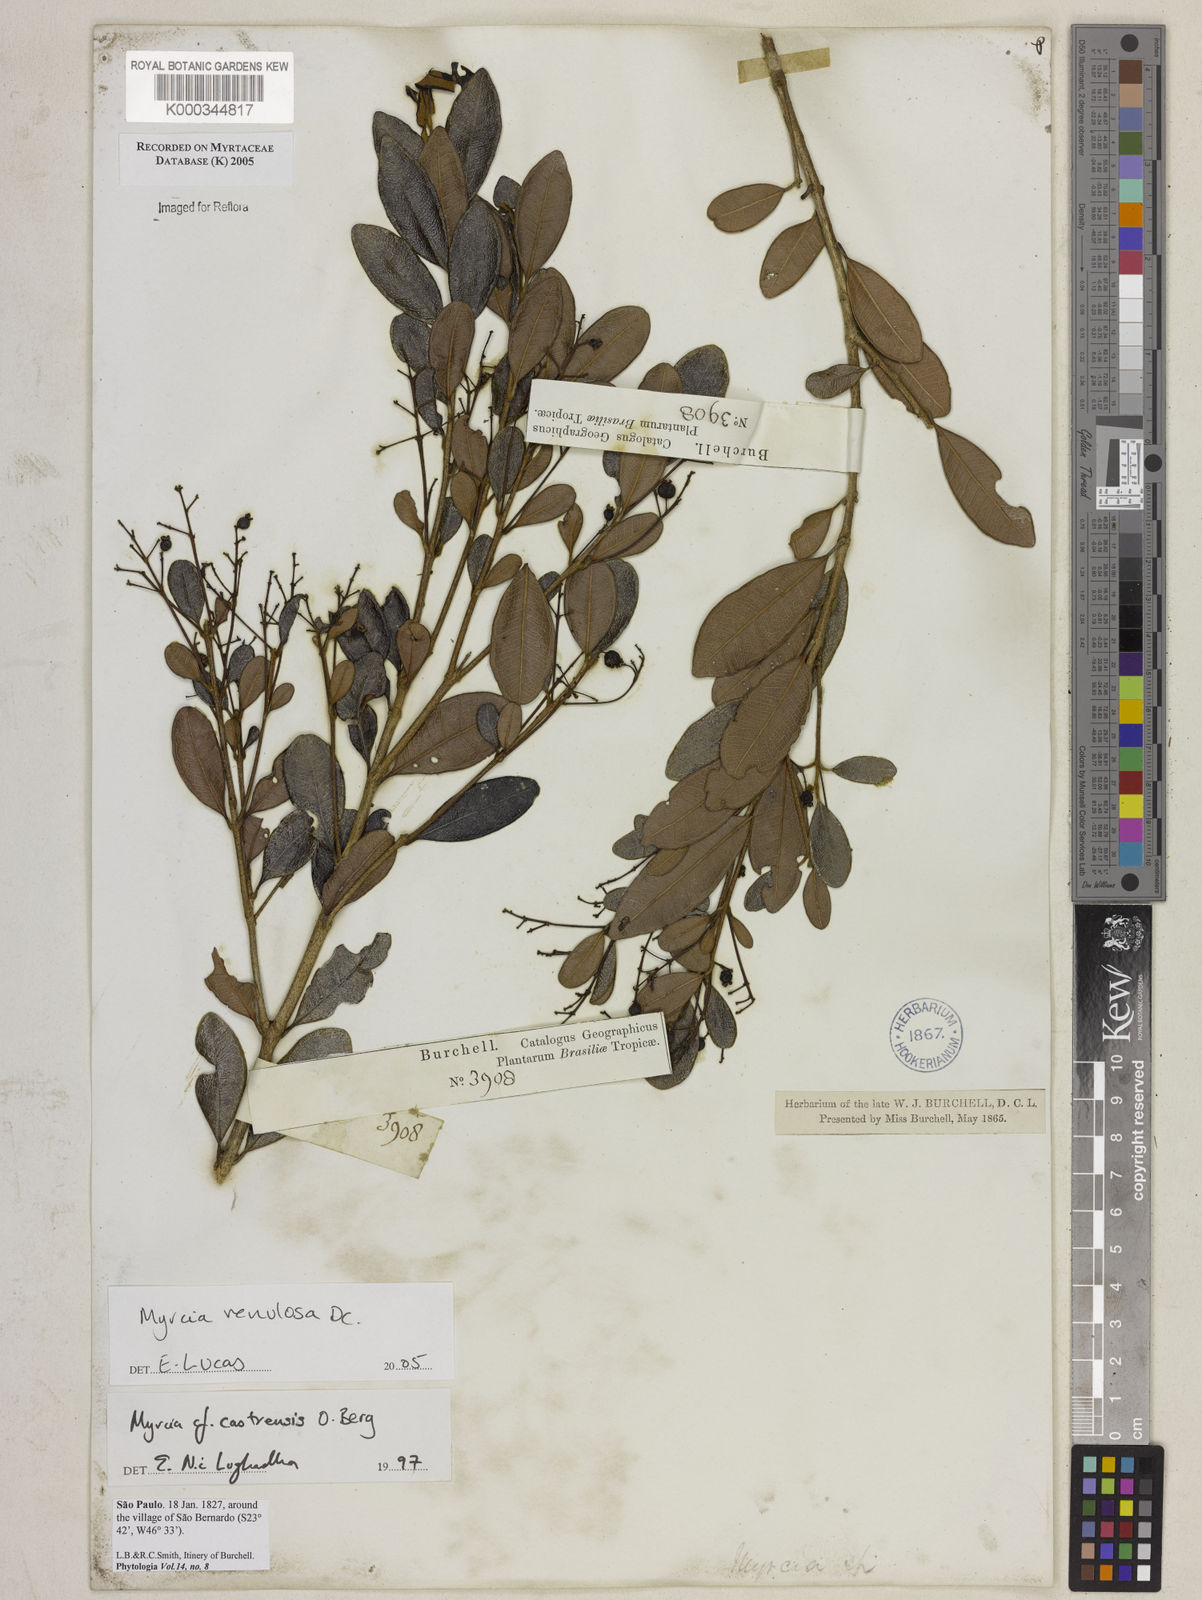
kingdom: Plantae
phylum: Tracheophyta
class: Magnoliopsida
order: Myrtales
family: Myrtaceae
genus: Myrcia
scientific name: Myrcia venulosa
